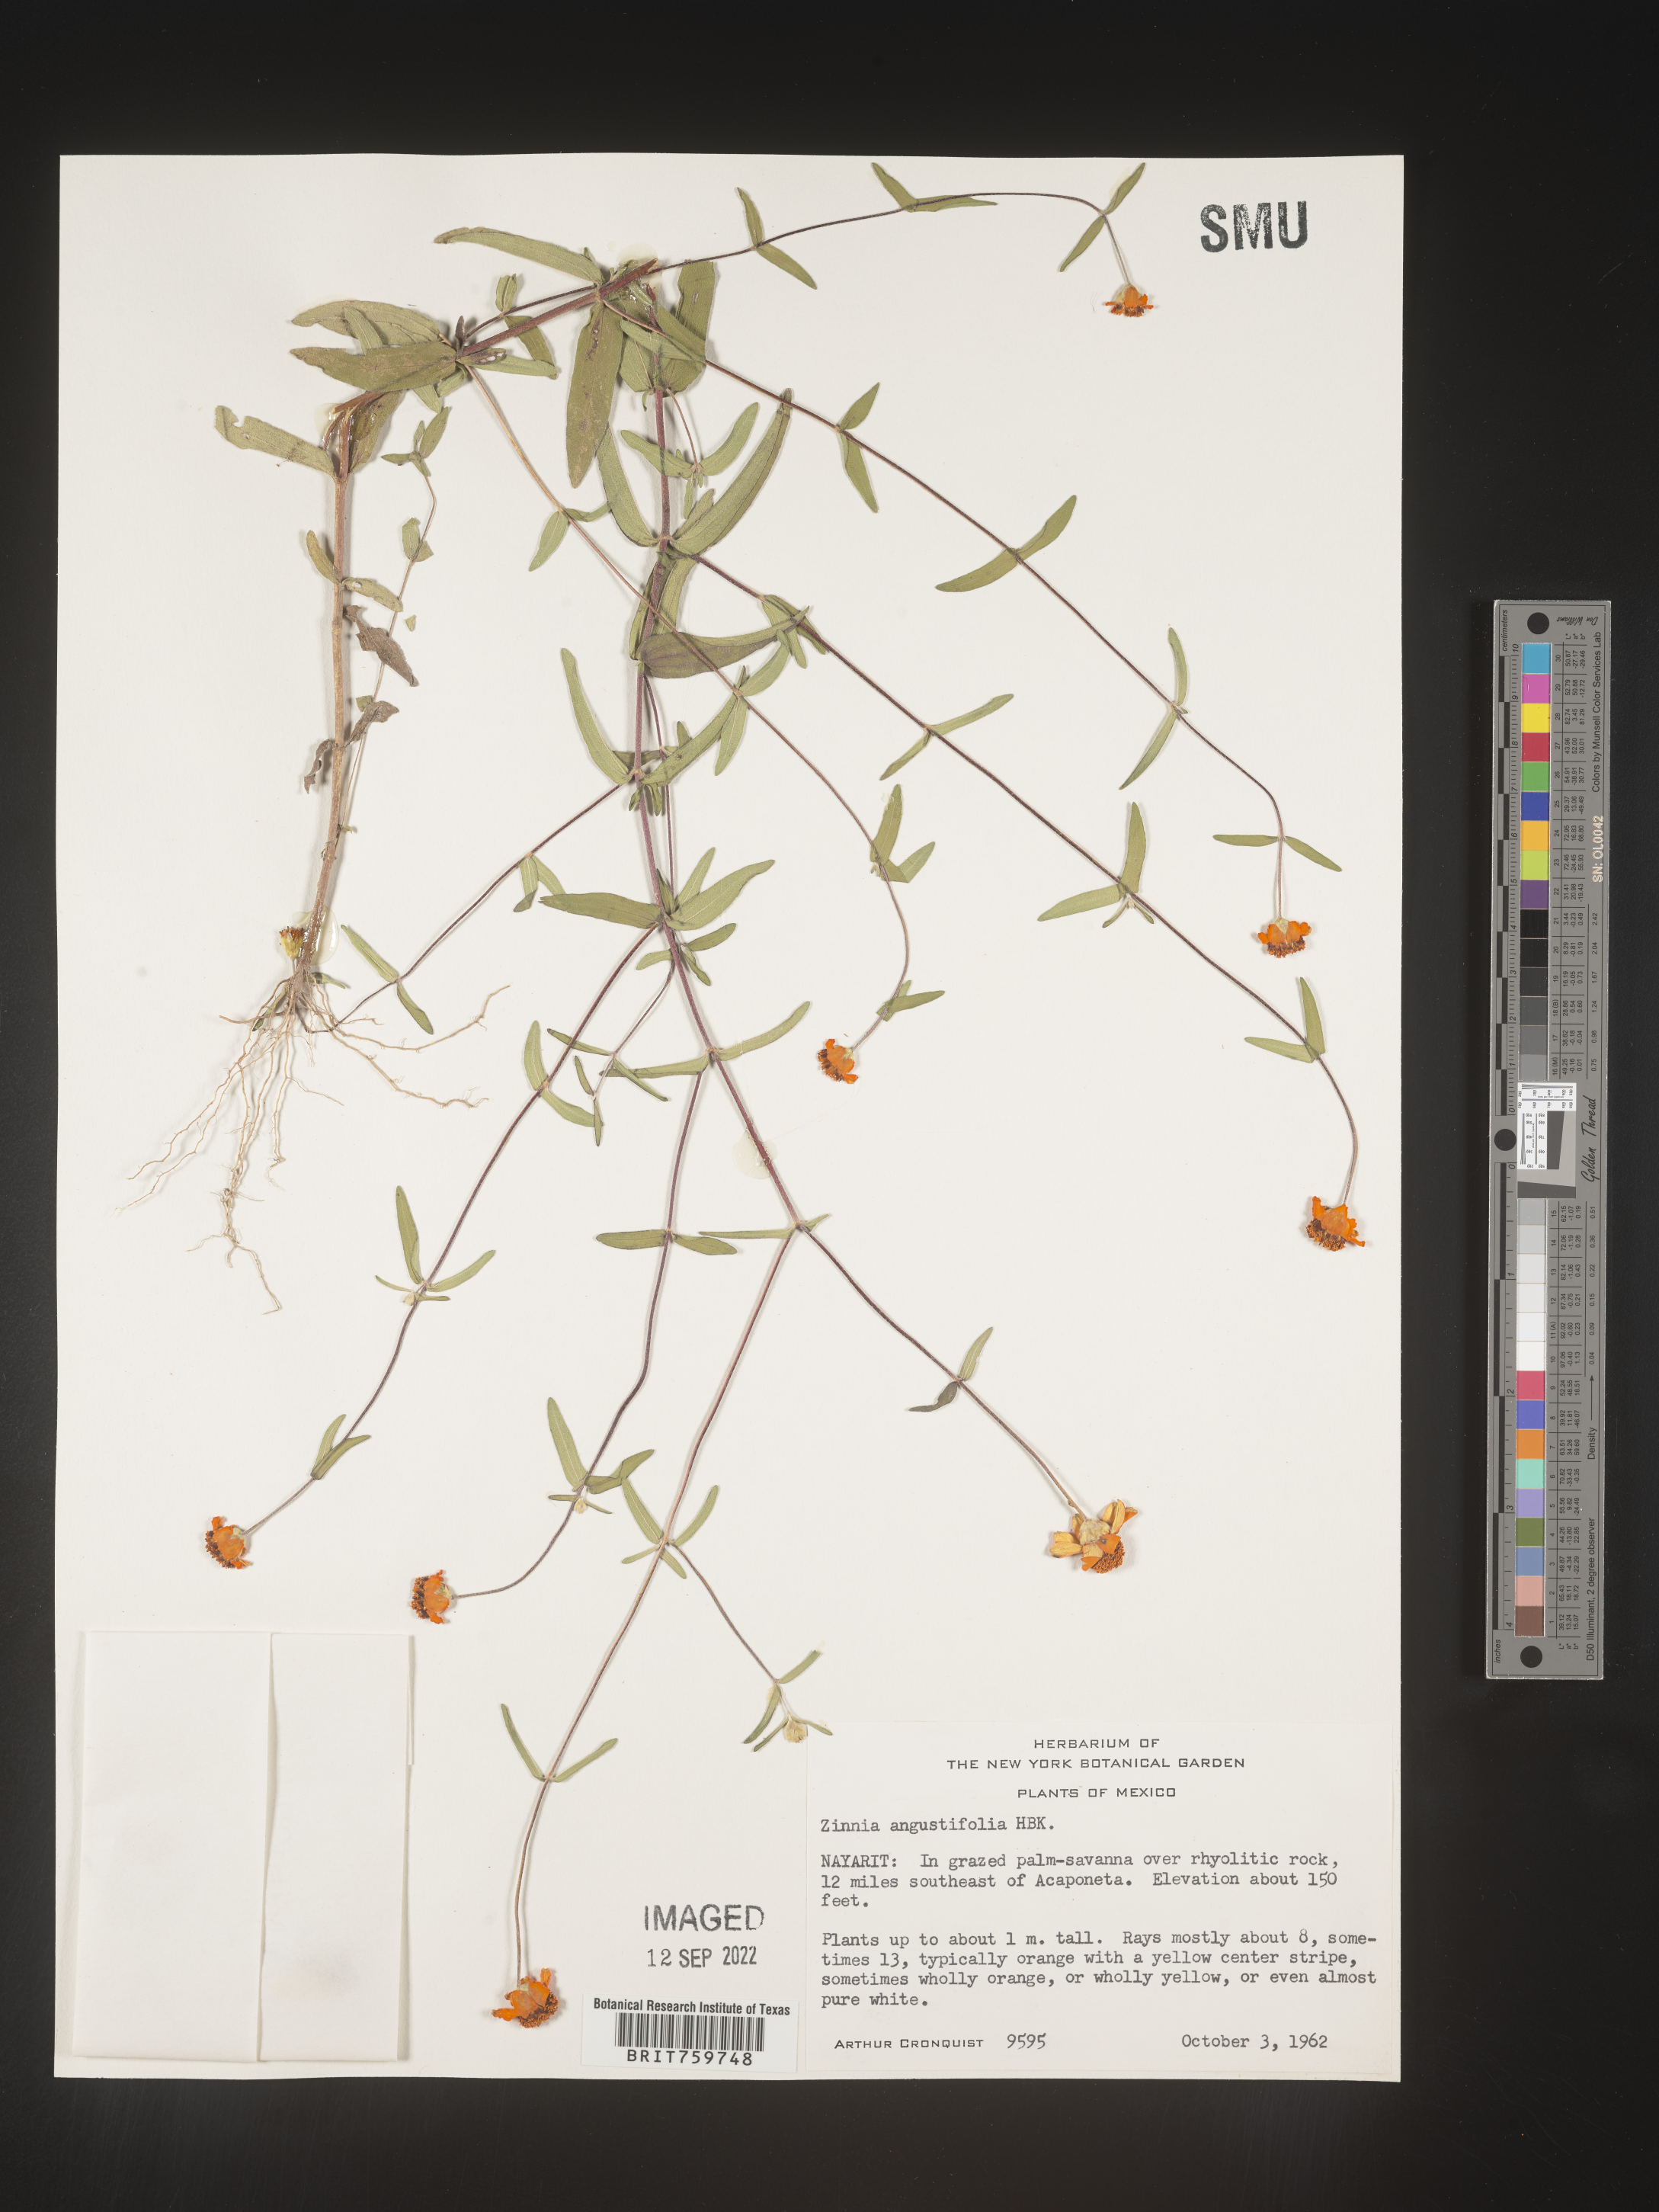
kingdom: Plantae
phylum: Tracheophyta
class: Magnoliopsida
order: Asterales
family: Asteraceae
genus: Zinnia
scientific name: Zinnia
